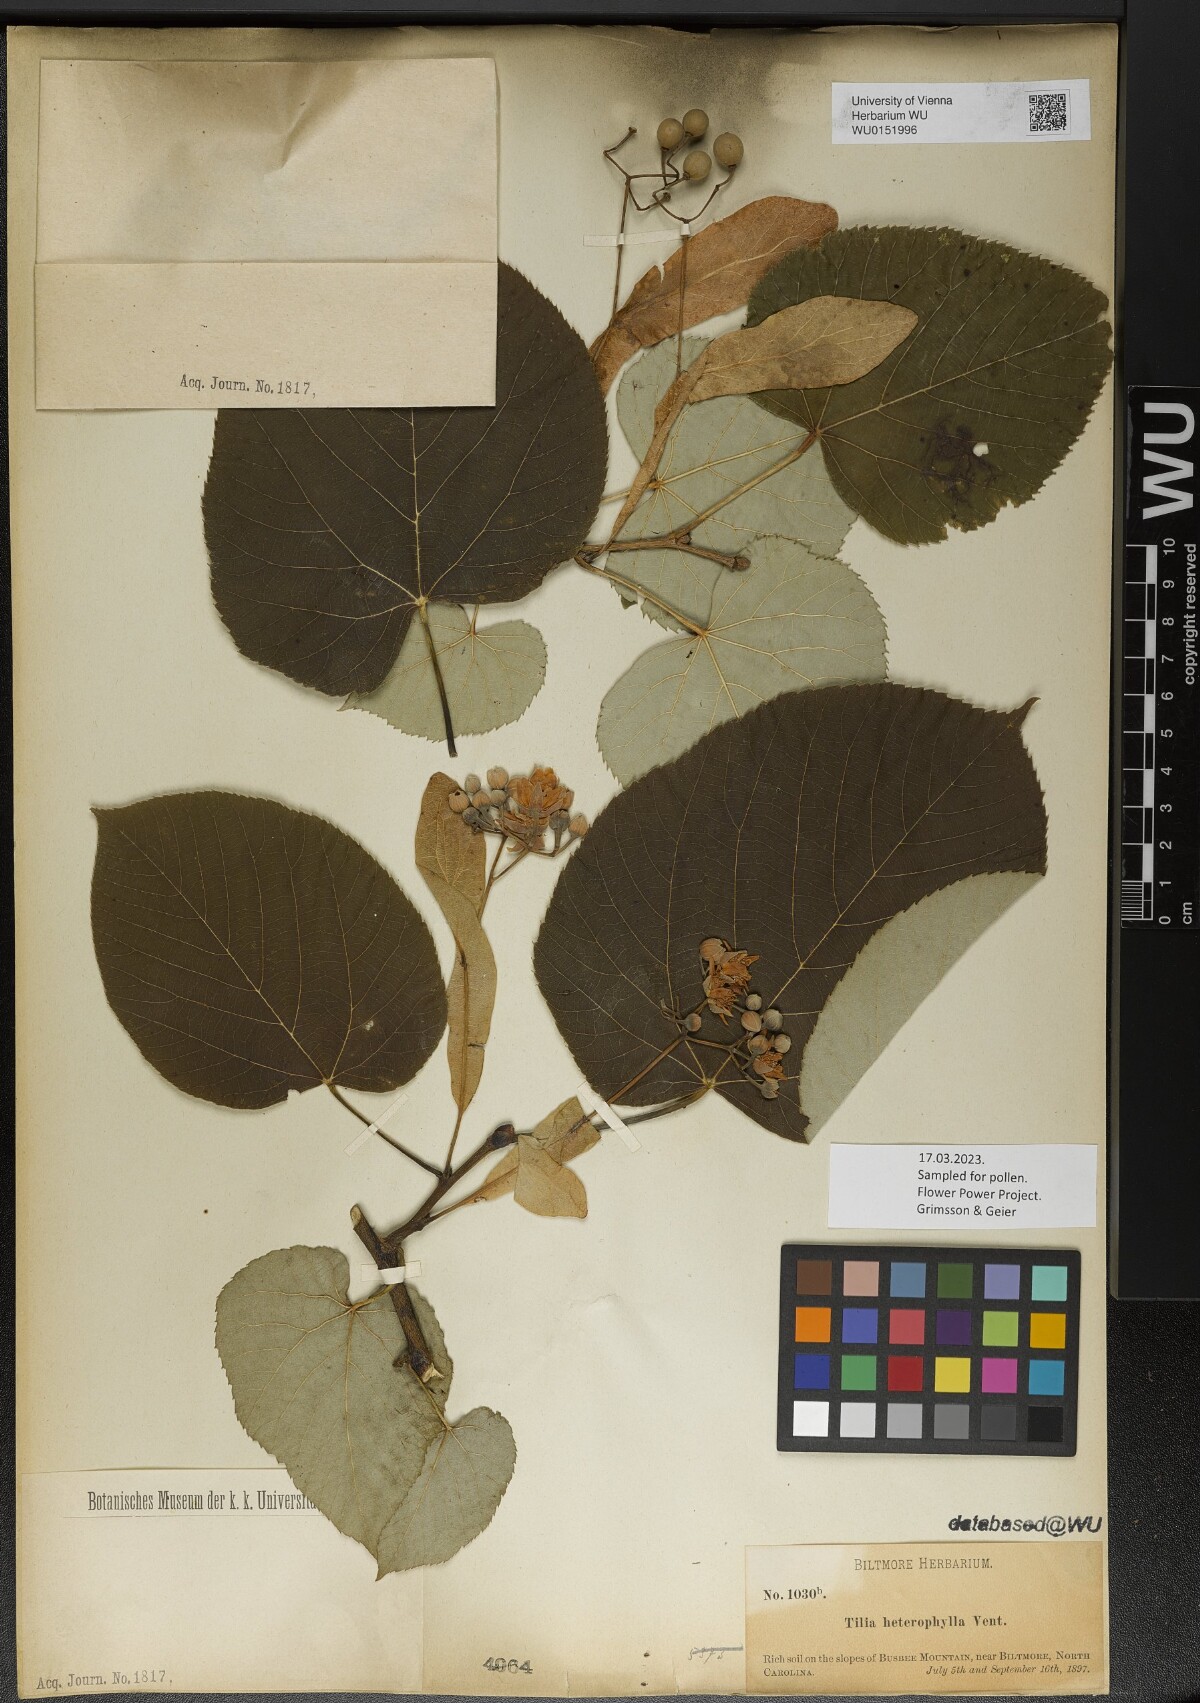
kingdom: Plantae
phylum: Tracheophyta
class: Magnoliopsida
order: Malvales
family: Malvaceae
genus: Tilia
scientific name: Tilia americana
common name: Basswood
